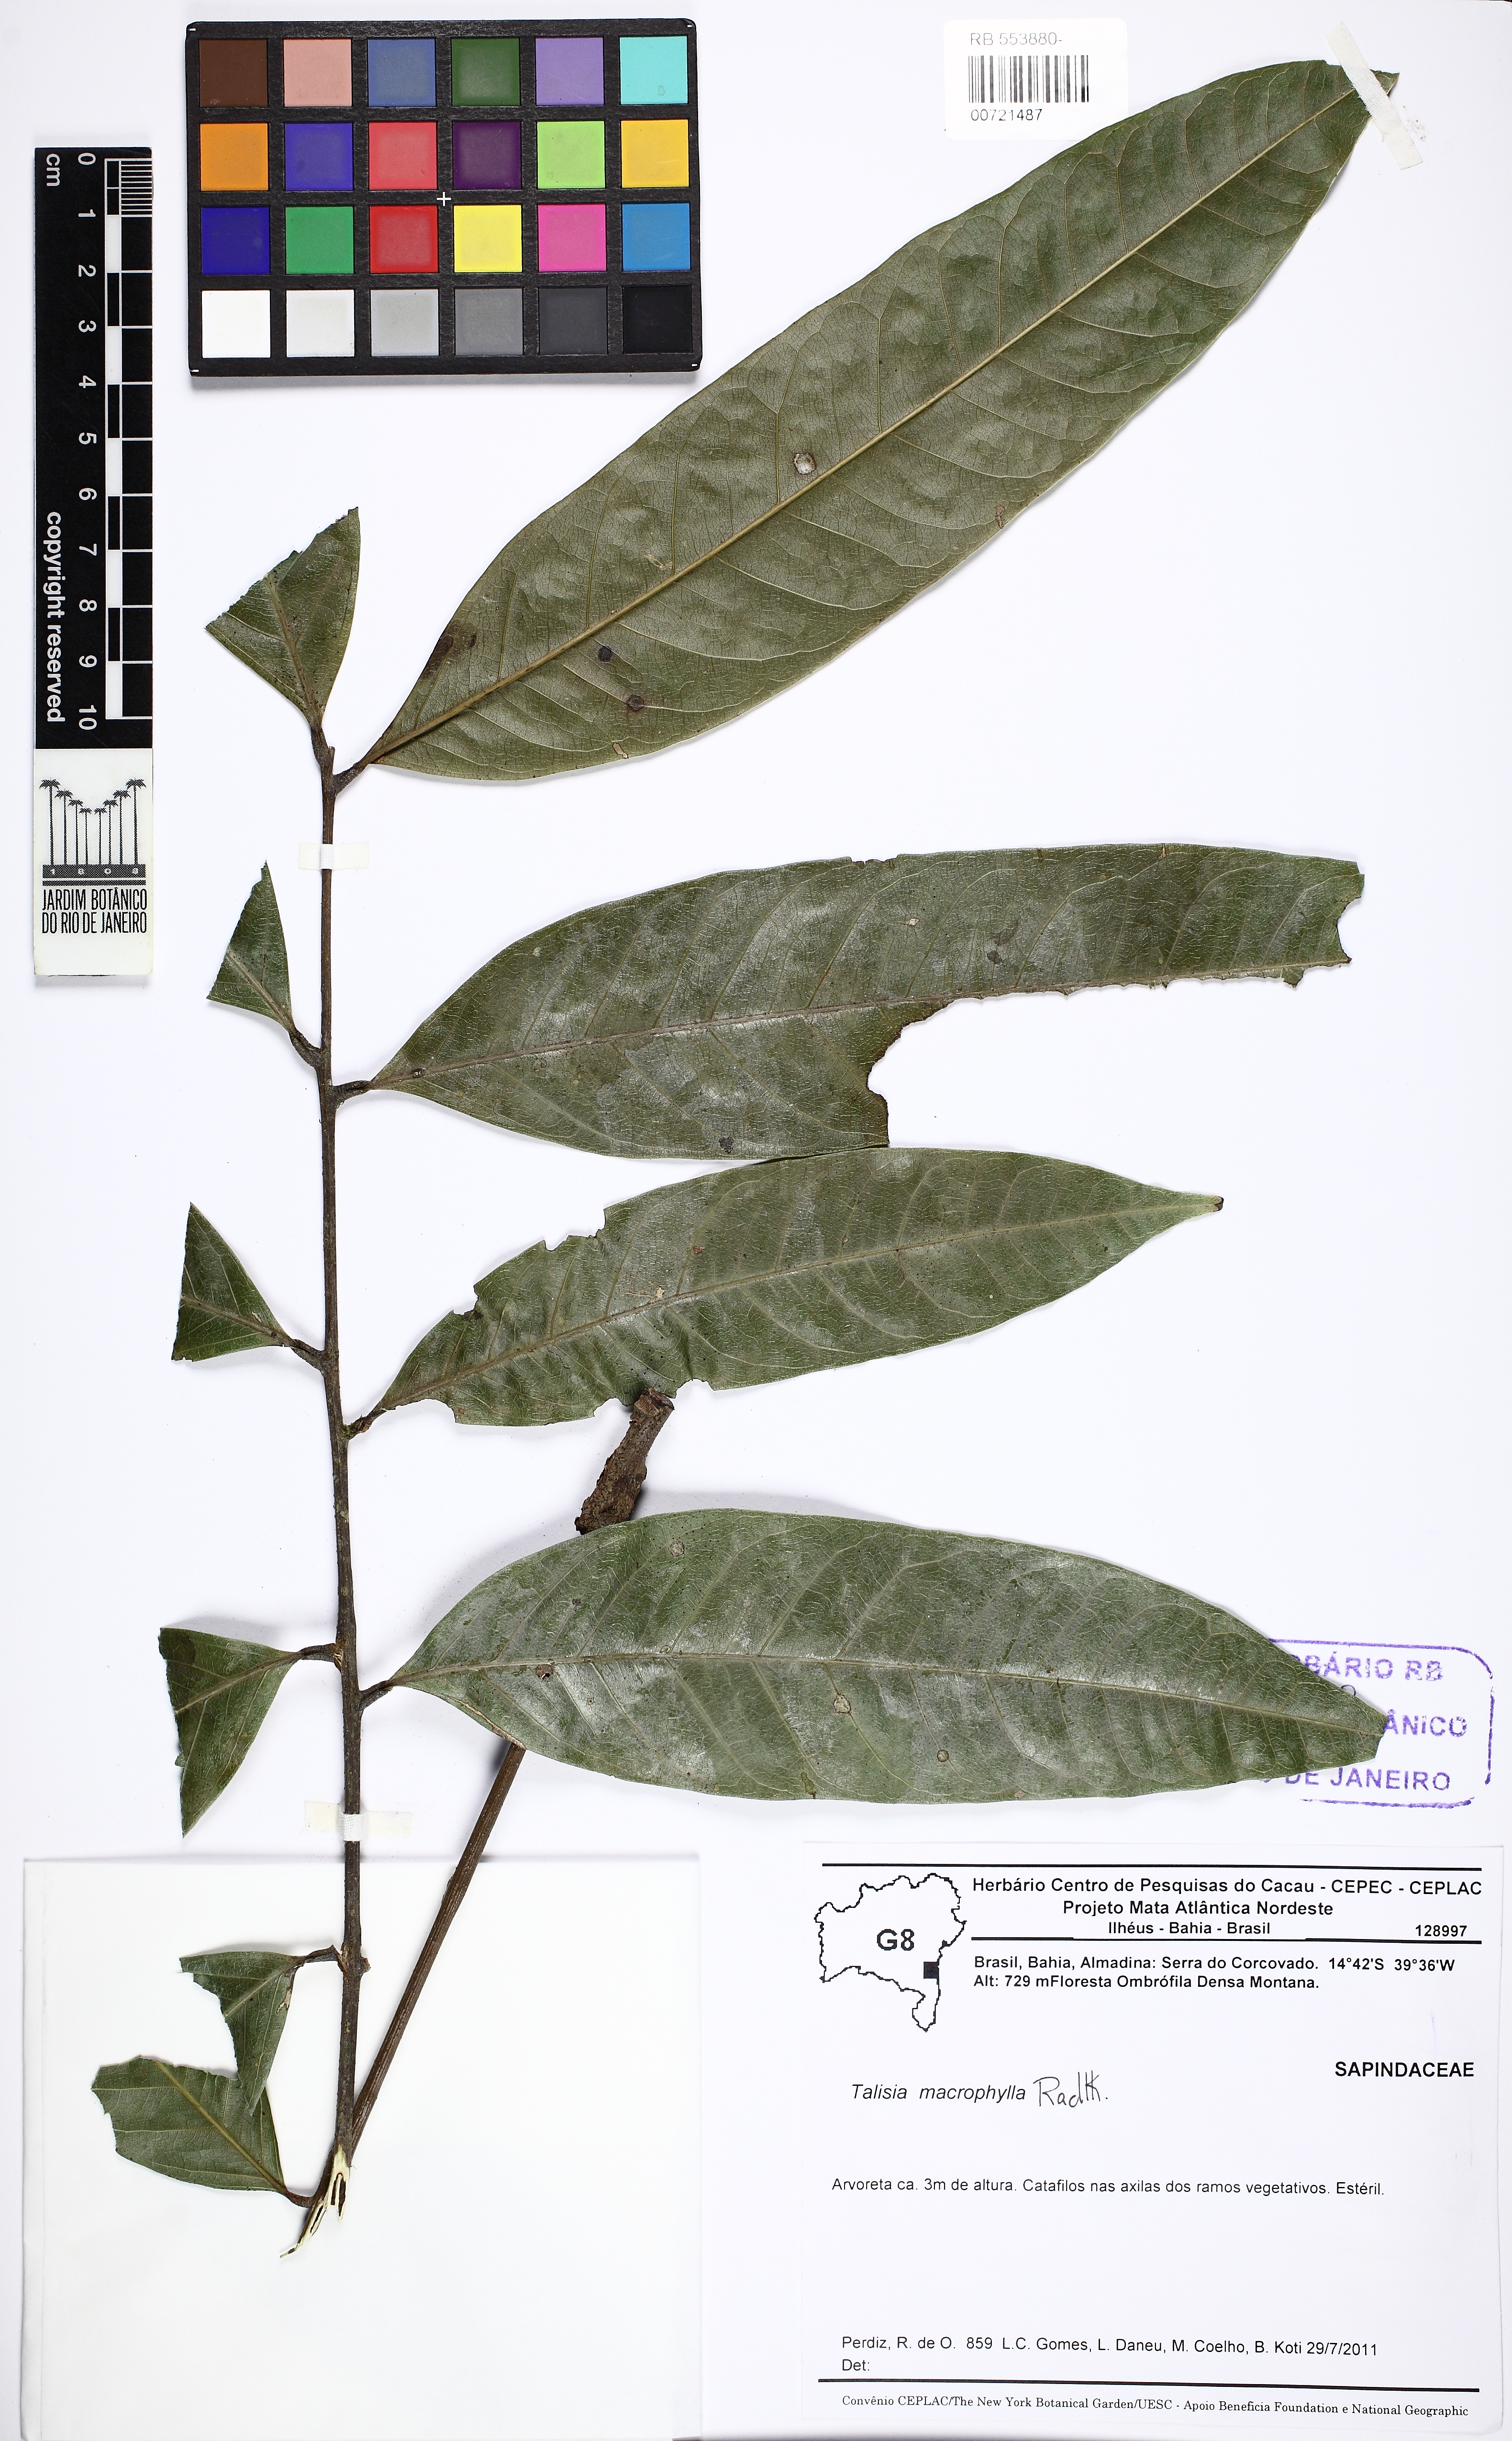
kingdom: Plantae
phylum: Tracheophyta
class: Magnoliopsida
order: Sapindales
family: Sapindaceae
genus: Talisia
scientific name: Talisia macrophylla
